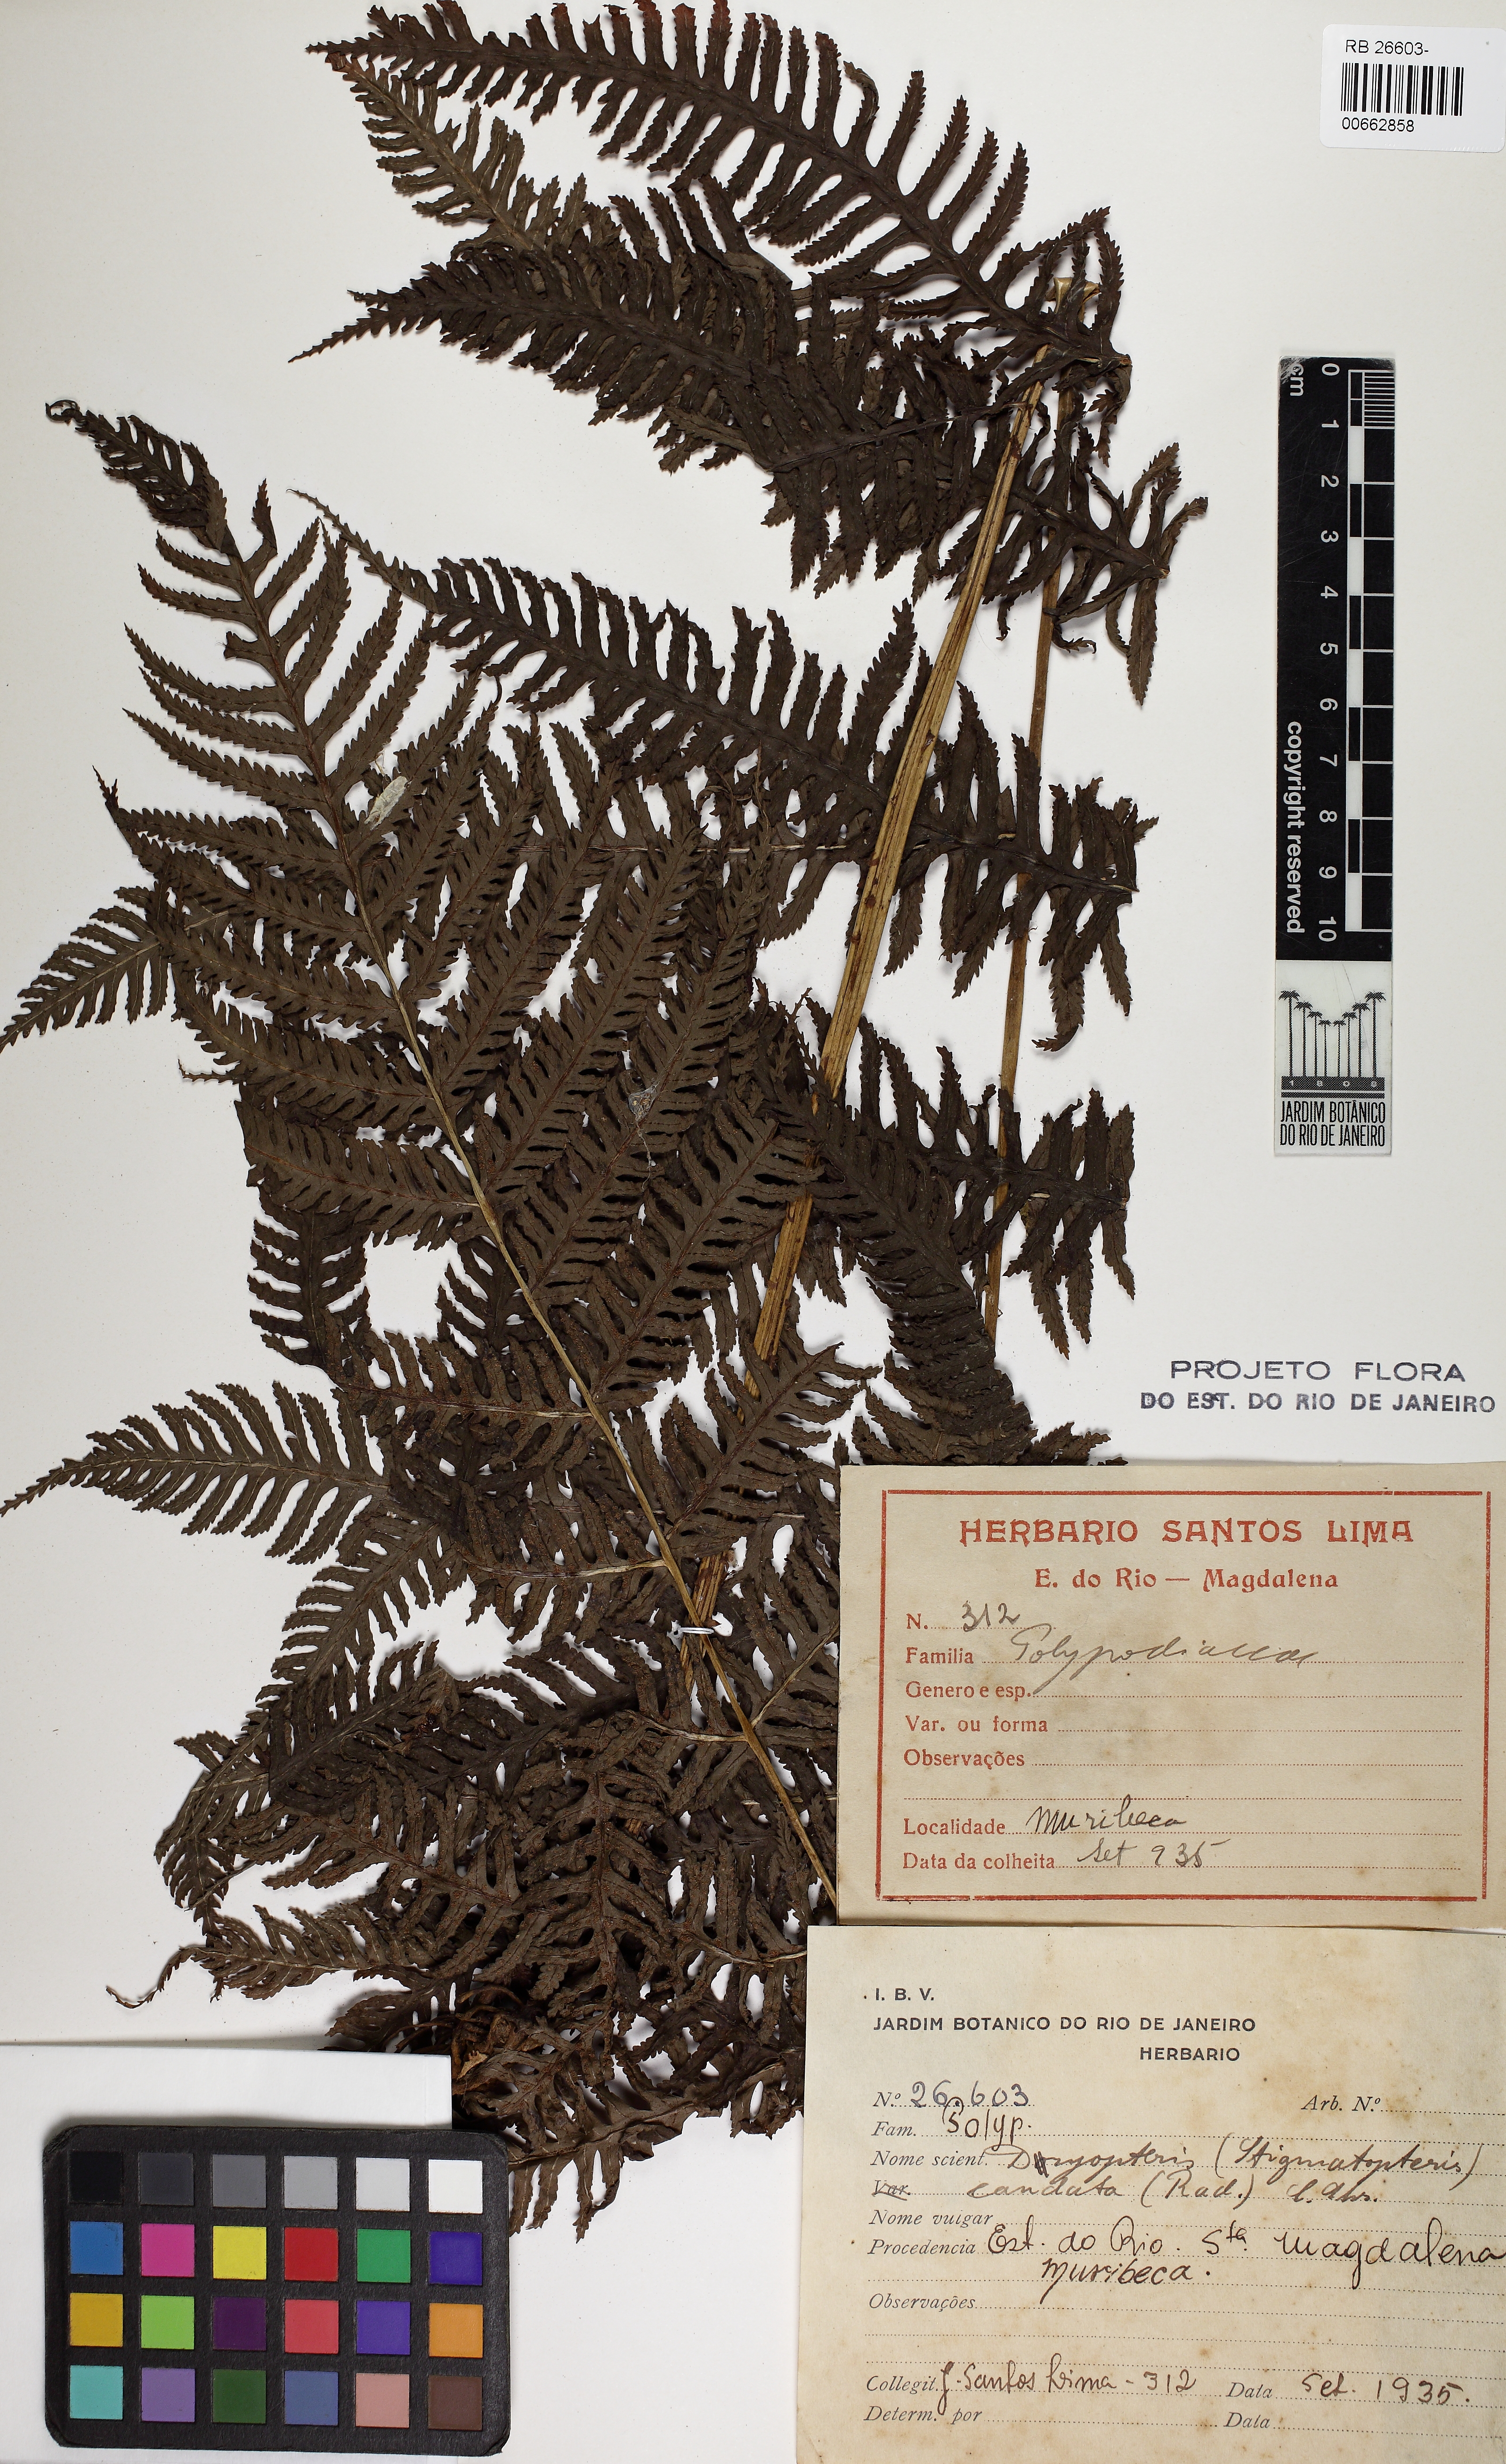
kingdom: Plantae
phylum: Tracheophyta
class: Polypodiopsida
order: Polypodiales
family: Dryopteridaceae
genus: Stigmatopteris
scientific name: Stigmatopteris caudata
